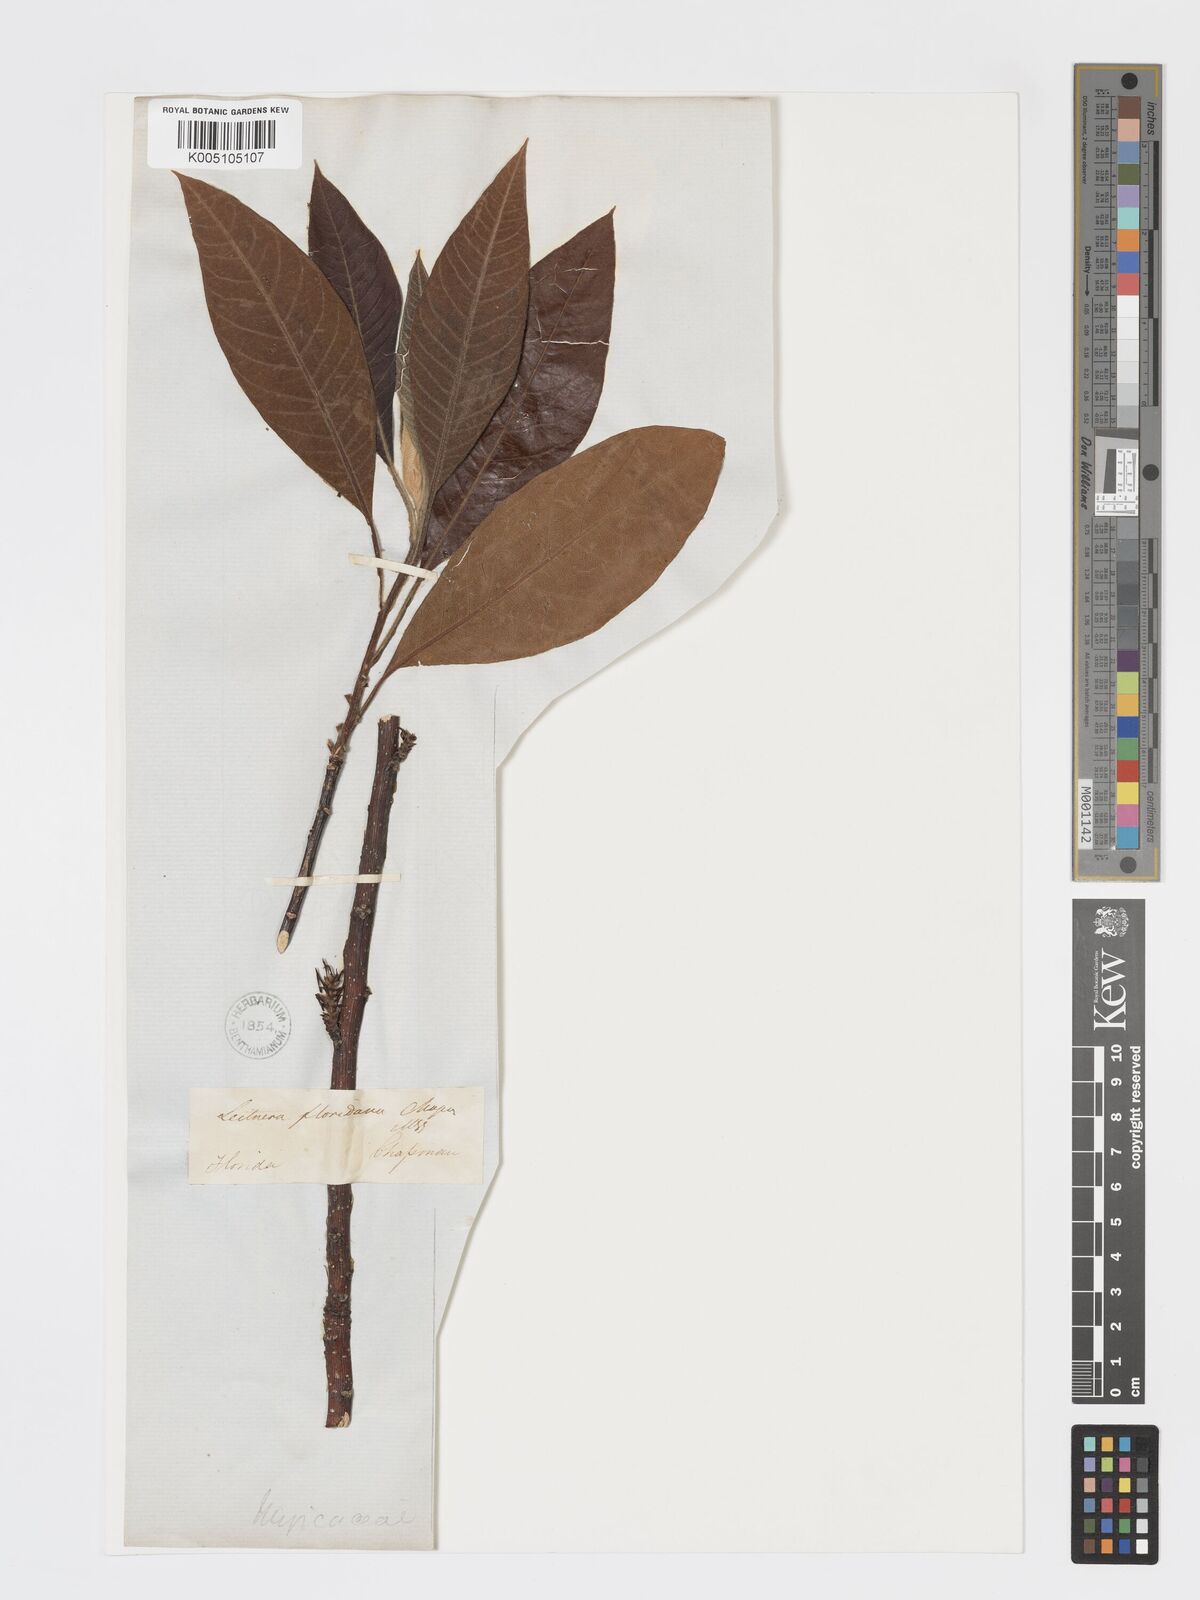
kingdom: Plantae
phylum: Tracheophyta
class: Magnoliopsida
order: Sapindales
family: Simaroubaceae
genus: Leitneria
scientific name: Leitneria floridana
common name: Corkwood
